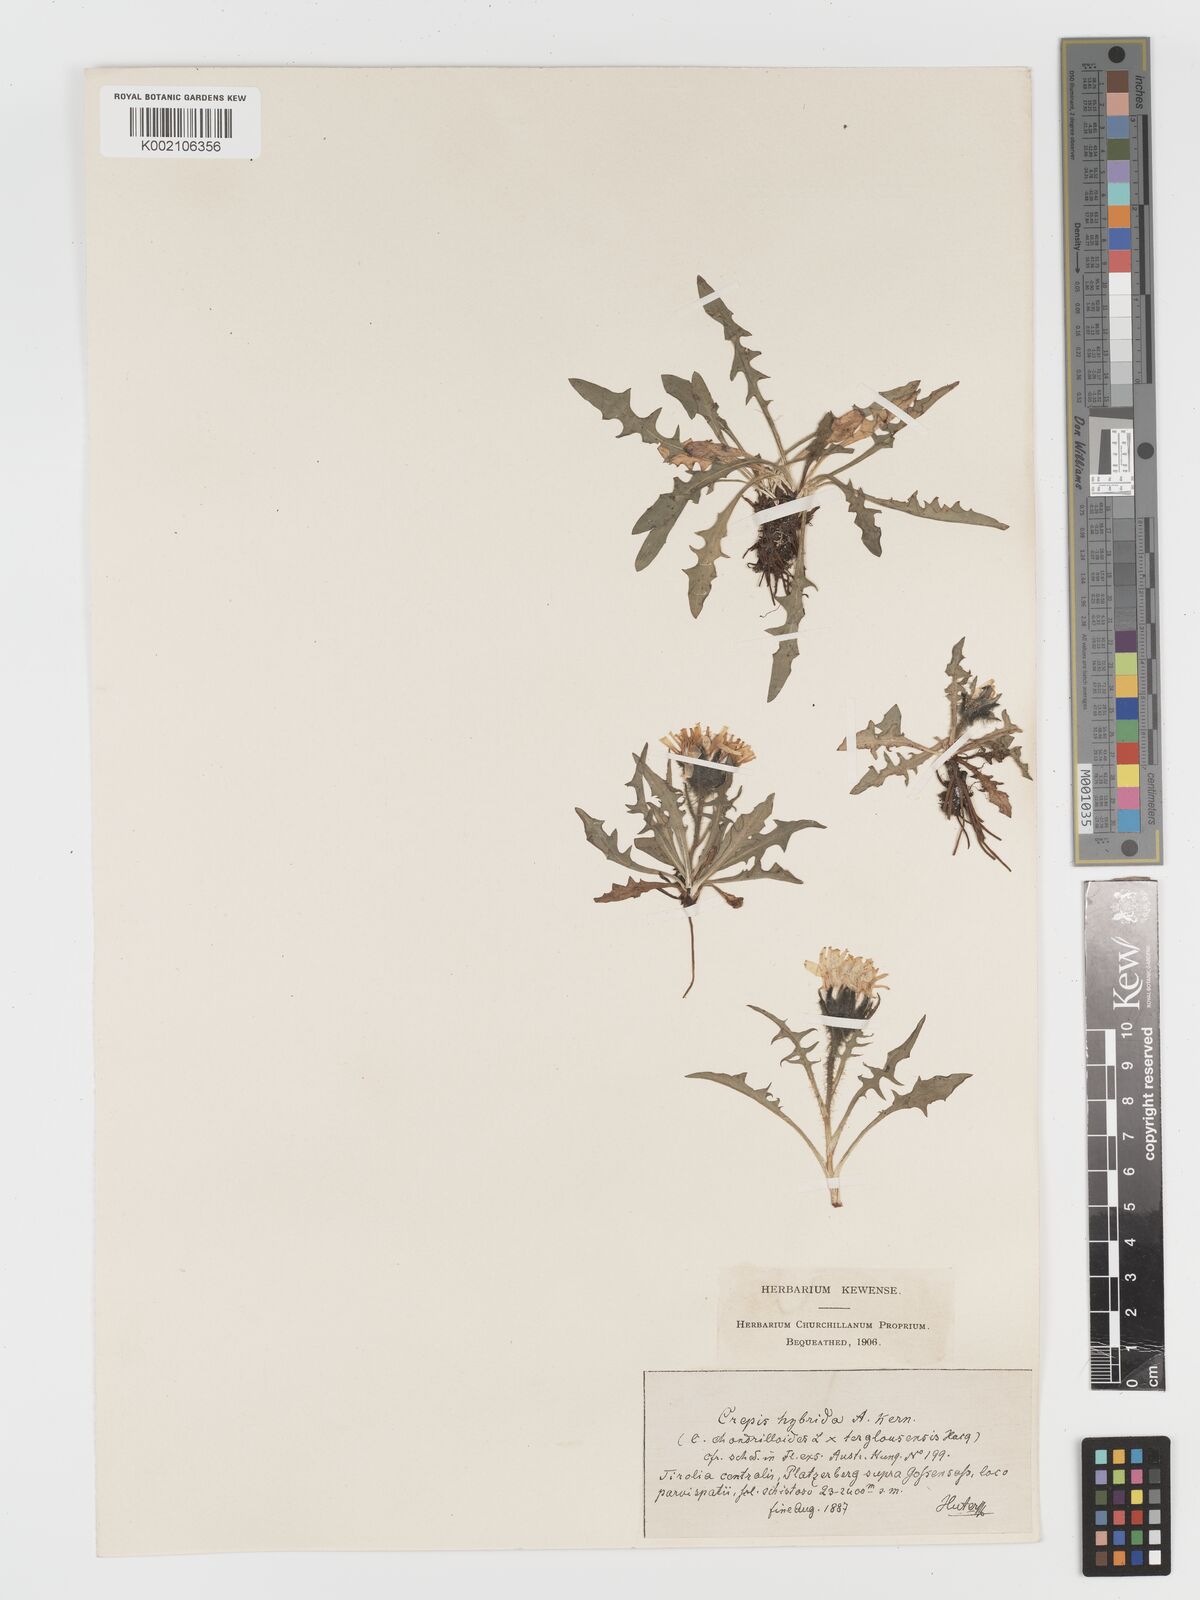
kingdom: Plantae
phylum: Tracheophyta
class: Magnoliopsida
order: Asterales
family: Asteraceae
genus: Crepis
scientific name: Crepis hybrida
